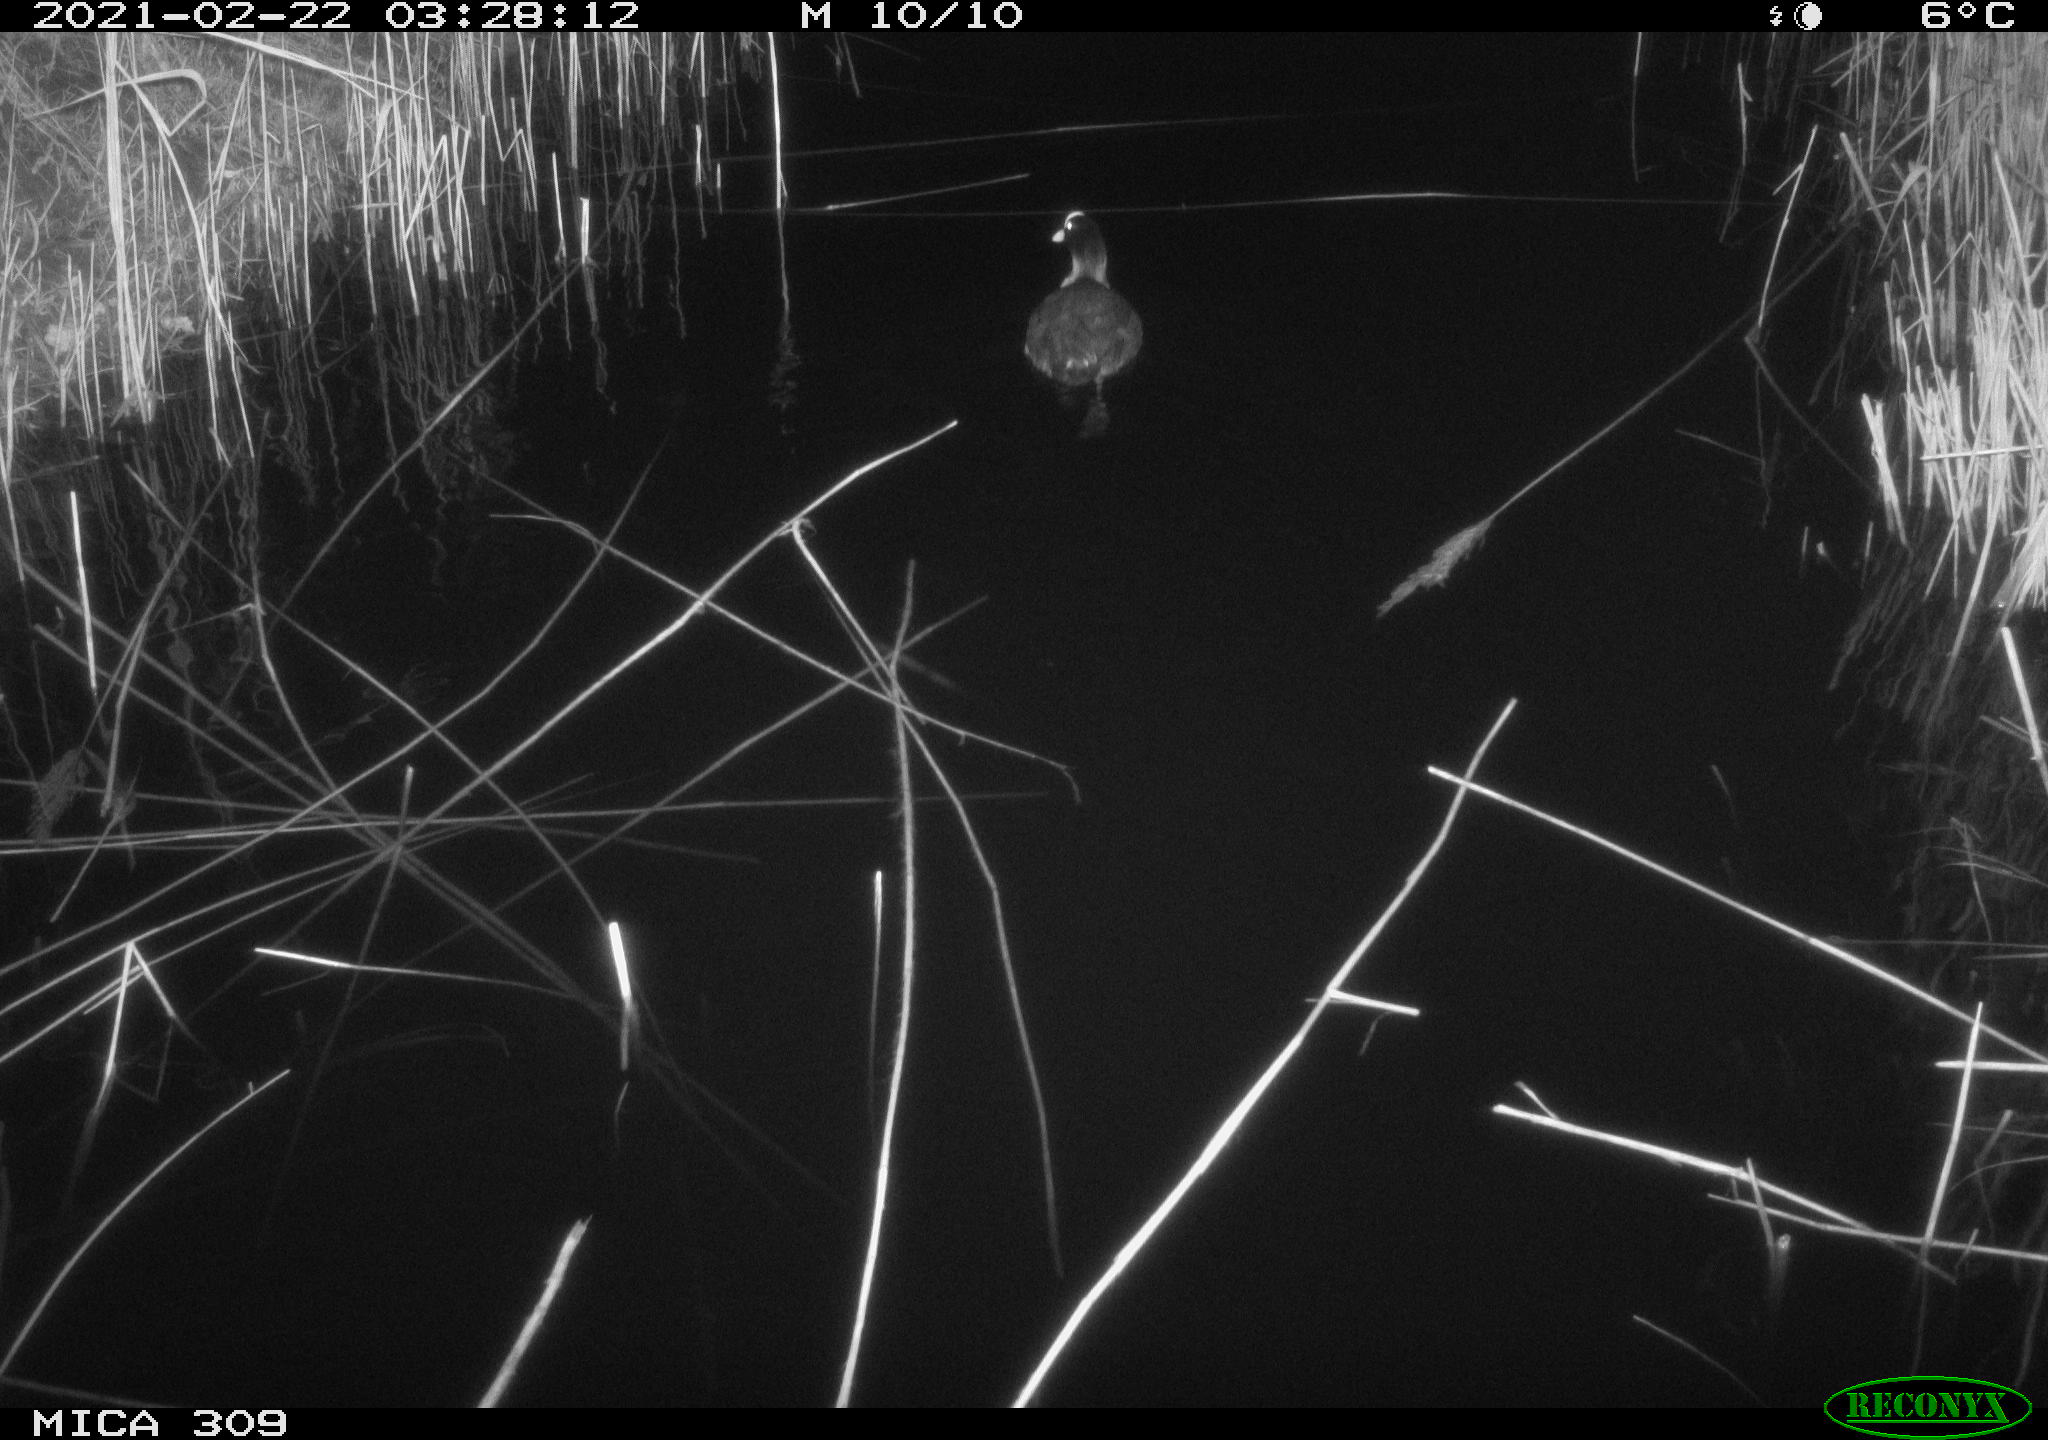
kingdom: Animalia
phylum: Chordata
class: Aves
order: Gruiformes
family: Rallidae
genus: Fulica
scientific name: Fulica atra
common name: Eurasian coot
